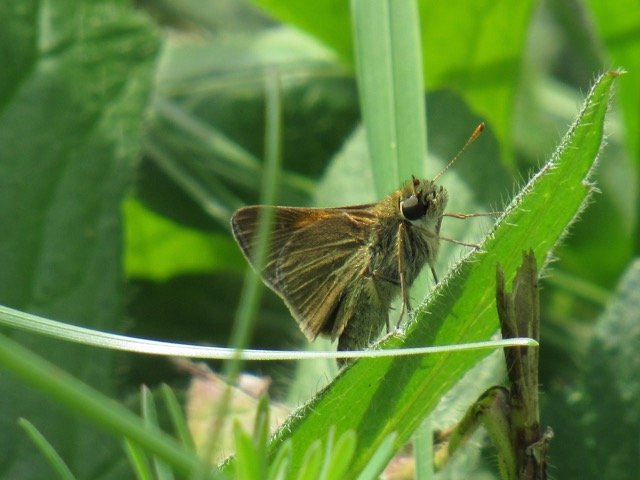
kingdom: Animalia
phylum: Arthropoda
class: Insecta
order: Lepidoptera
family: Hesperiidae
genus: Polites
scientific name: Polites themistocles
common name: Tawny-edged Skipper
